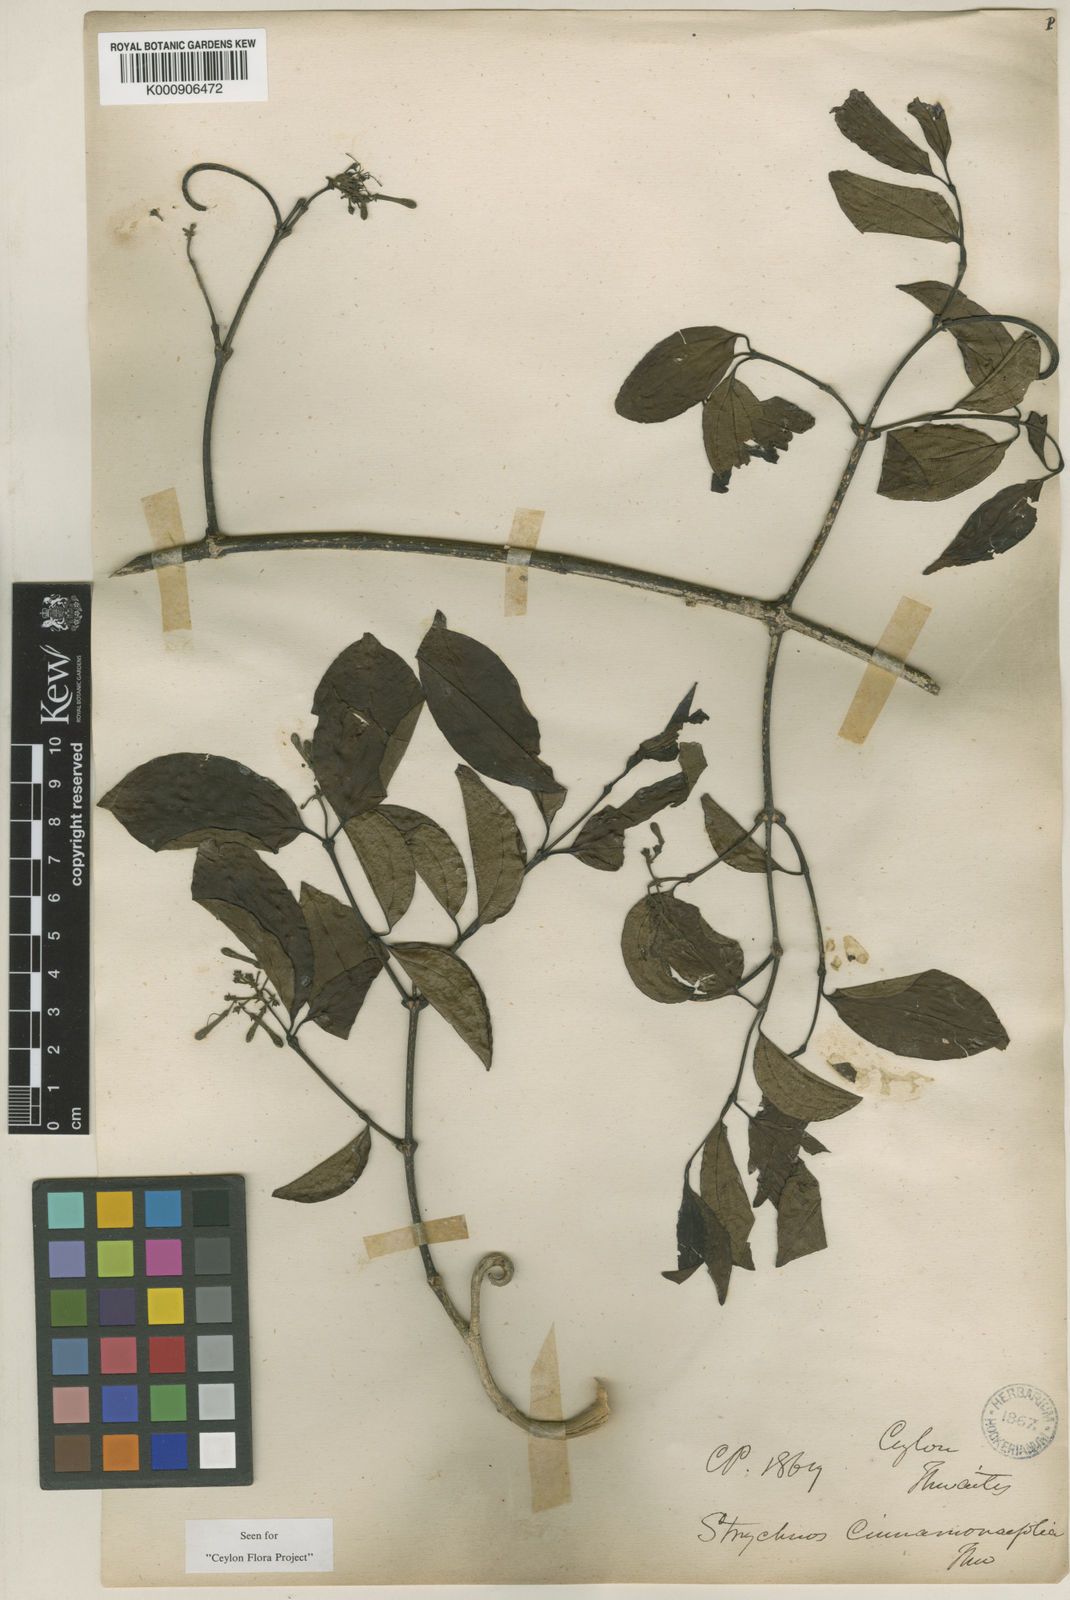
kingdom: Plantae
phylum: Tracheophyta
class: Magnoliopsida
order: Gentianales
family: Loganiaceae
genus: Strychnos
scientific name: Strychnos
